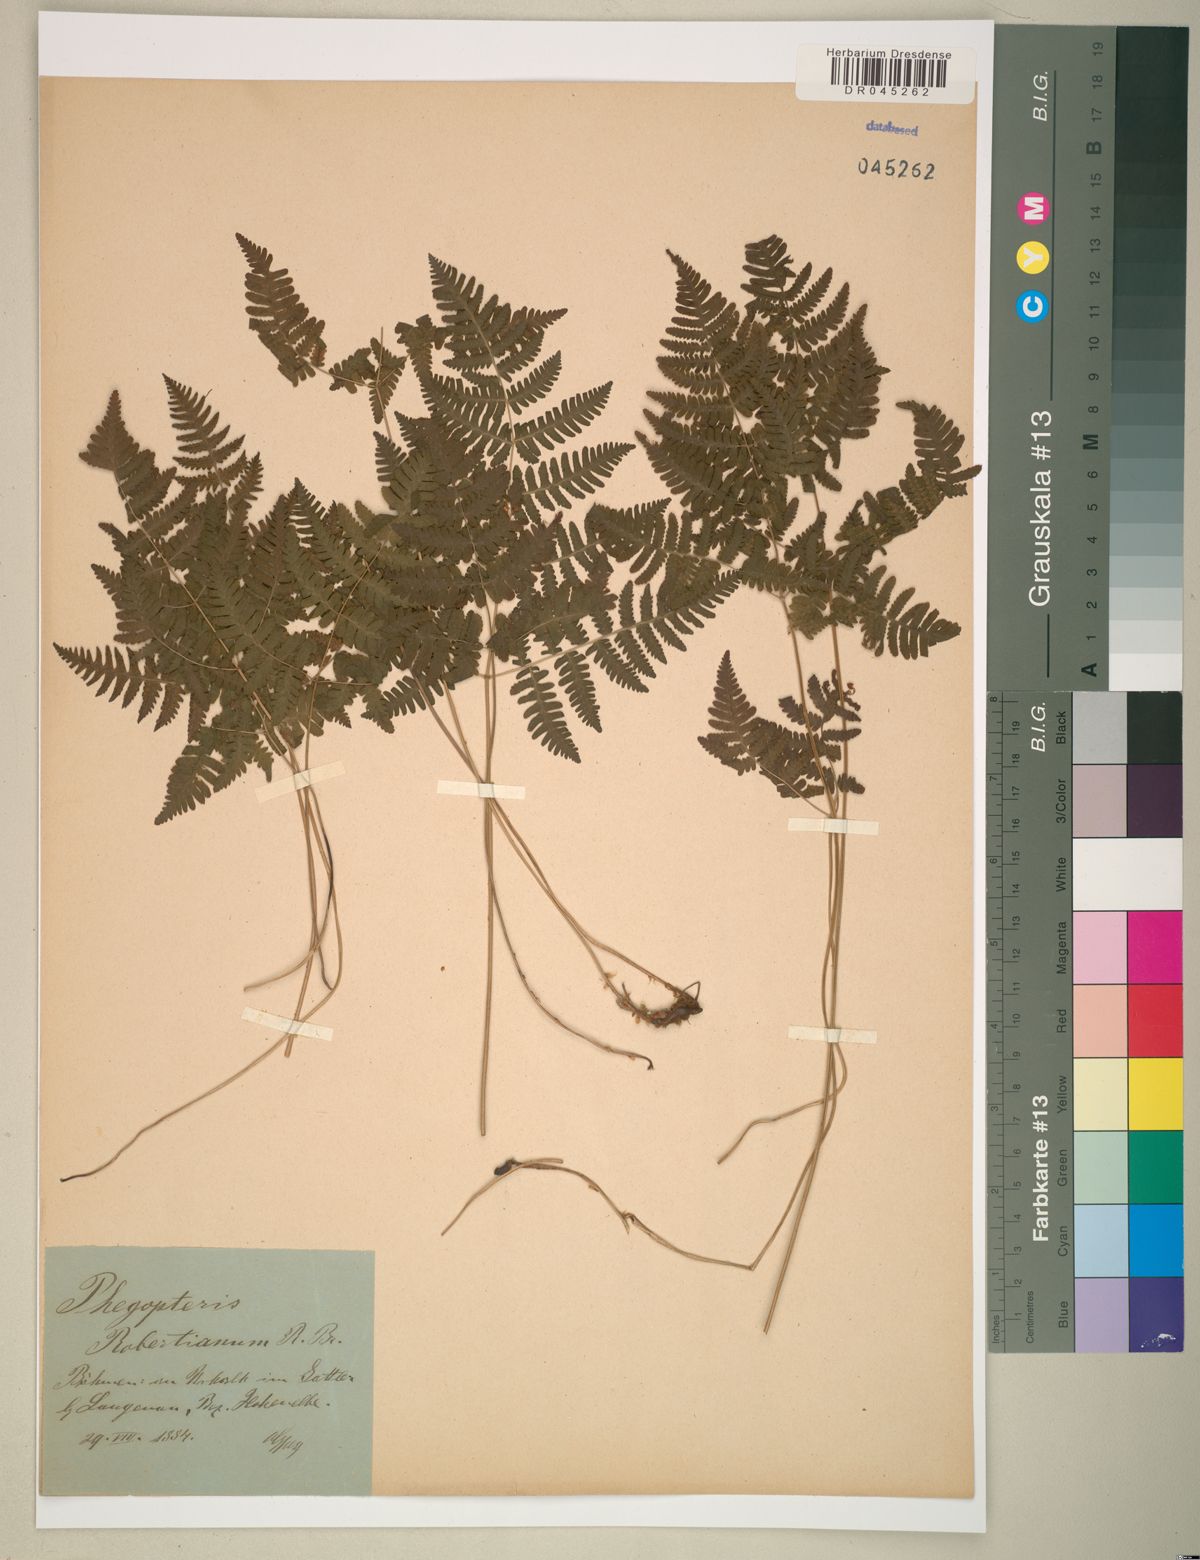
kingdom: Plantae
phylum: Tracheophyta
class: Polypodiopsida
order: Polypodiales
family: Cystopteridaceae
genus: Gymnocarpium
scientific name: Gymnocarpium robertianum
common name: Limestone fern
